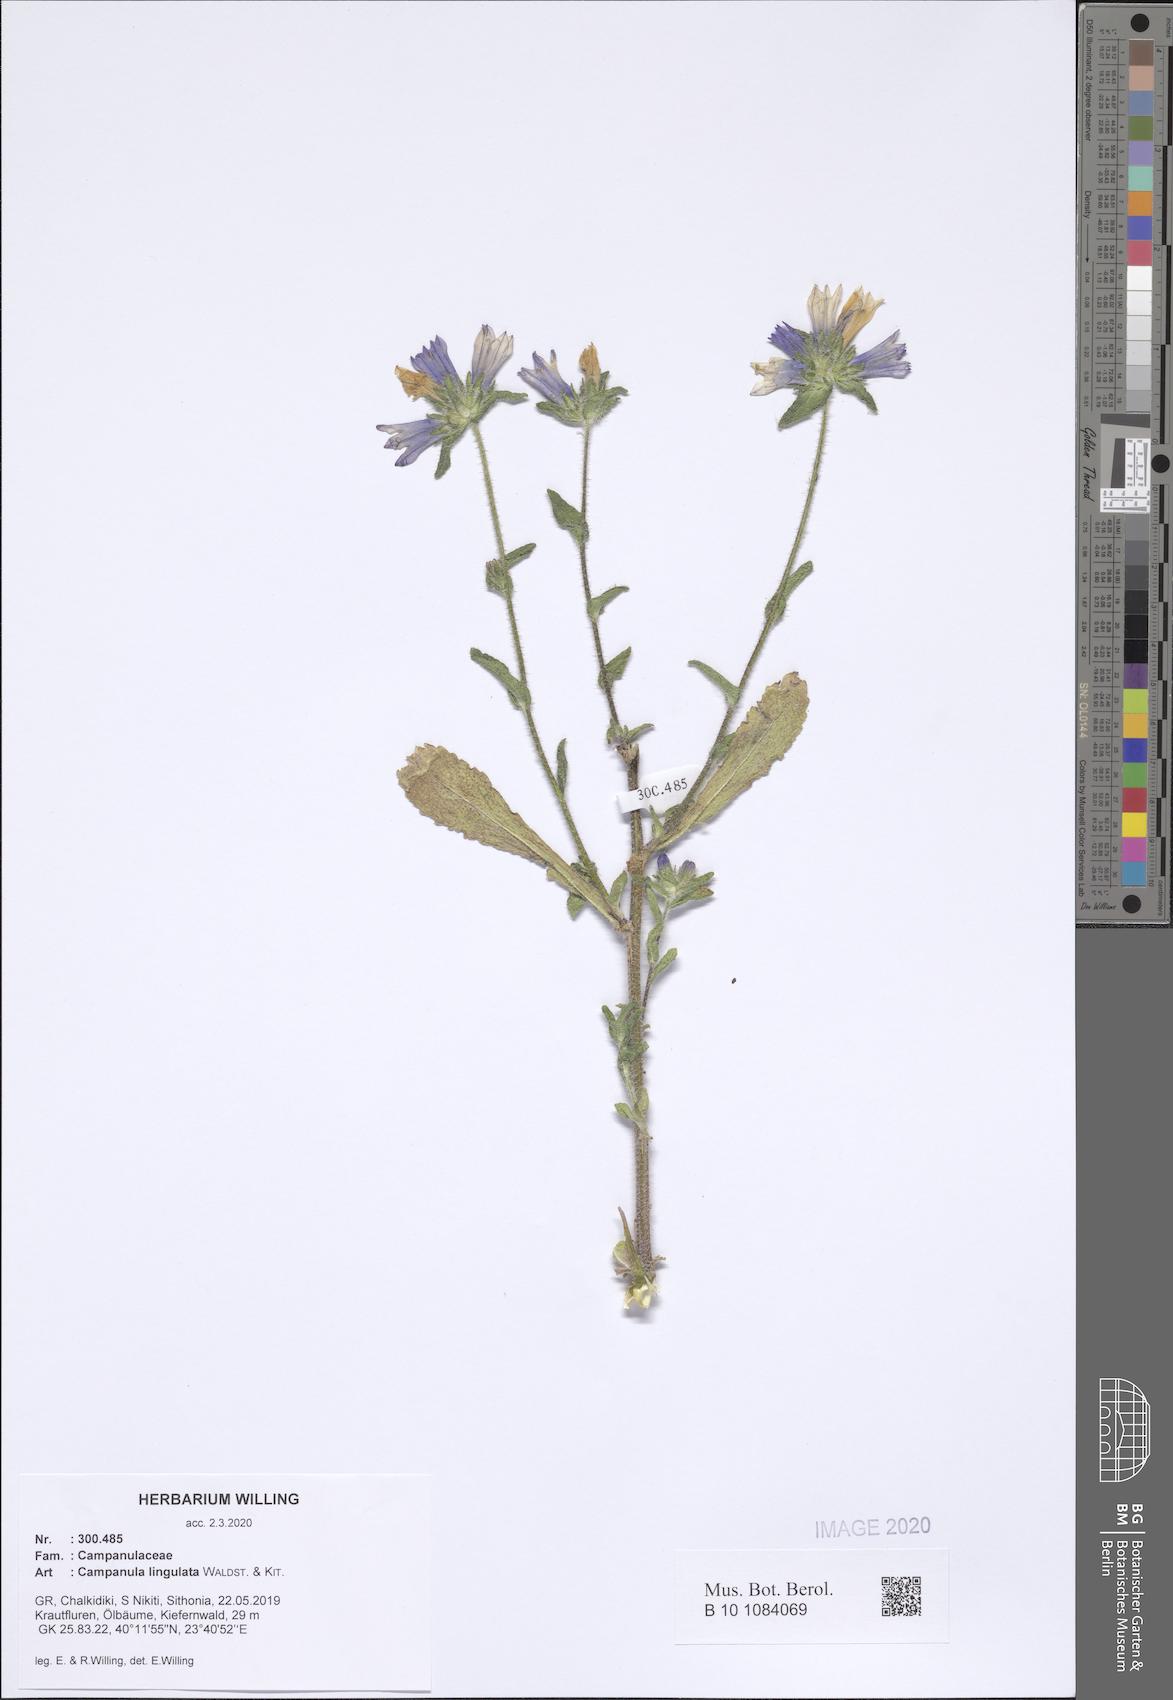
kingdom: Plantae
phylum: Tracheophyta
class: Magnoliopsida
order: Asterales
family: Campanulaceae
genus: Campanula
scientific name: Campanula lingulata
